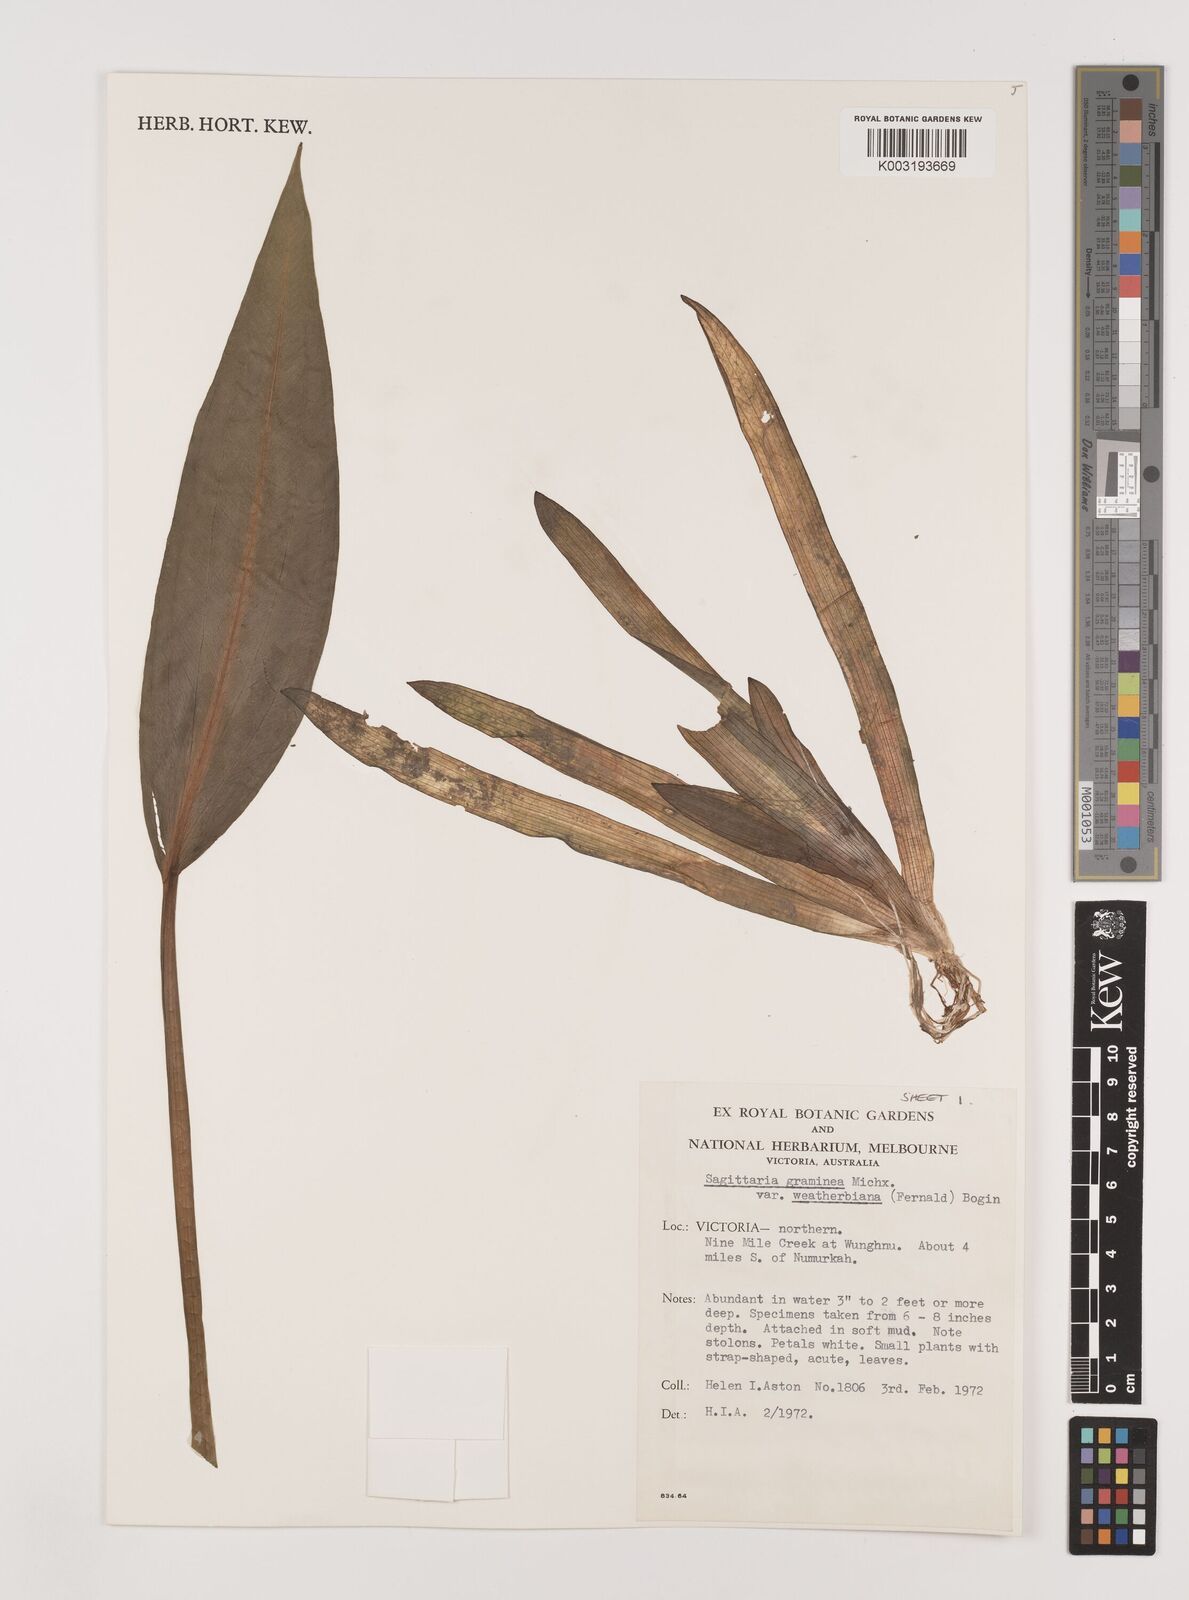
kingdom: Plantae
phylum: Tracheophyta
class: Liliopsida
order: Alismatales
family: Alismataceae
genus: Sagittaria
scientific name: Sagittaria graminea
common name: Grass-leaved arrowhead
